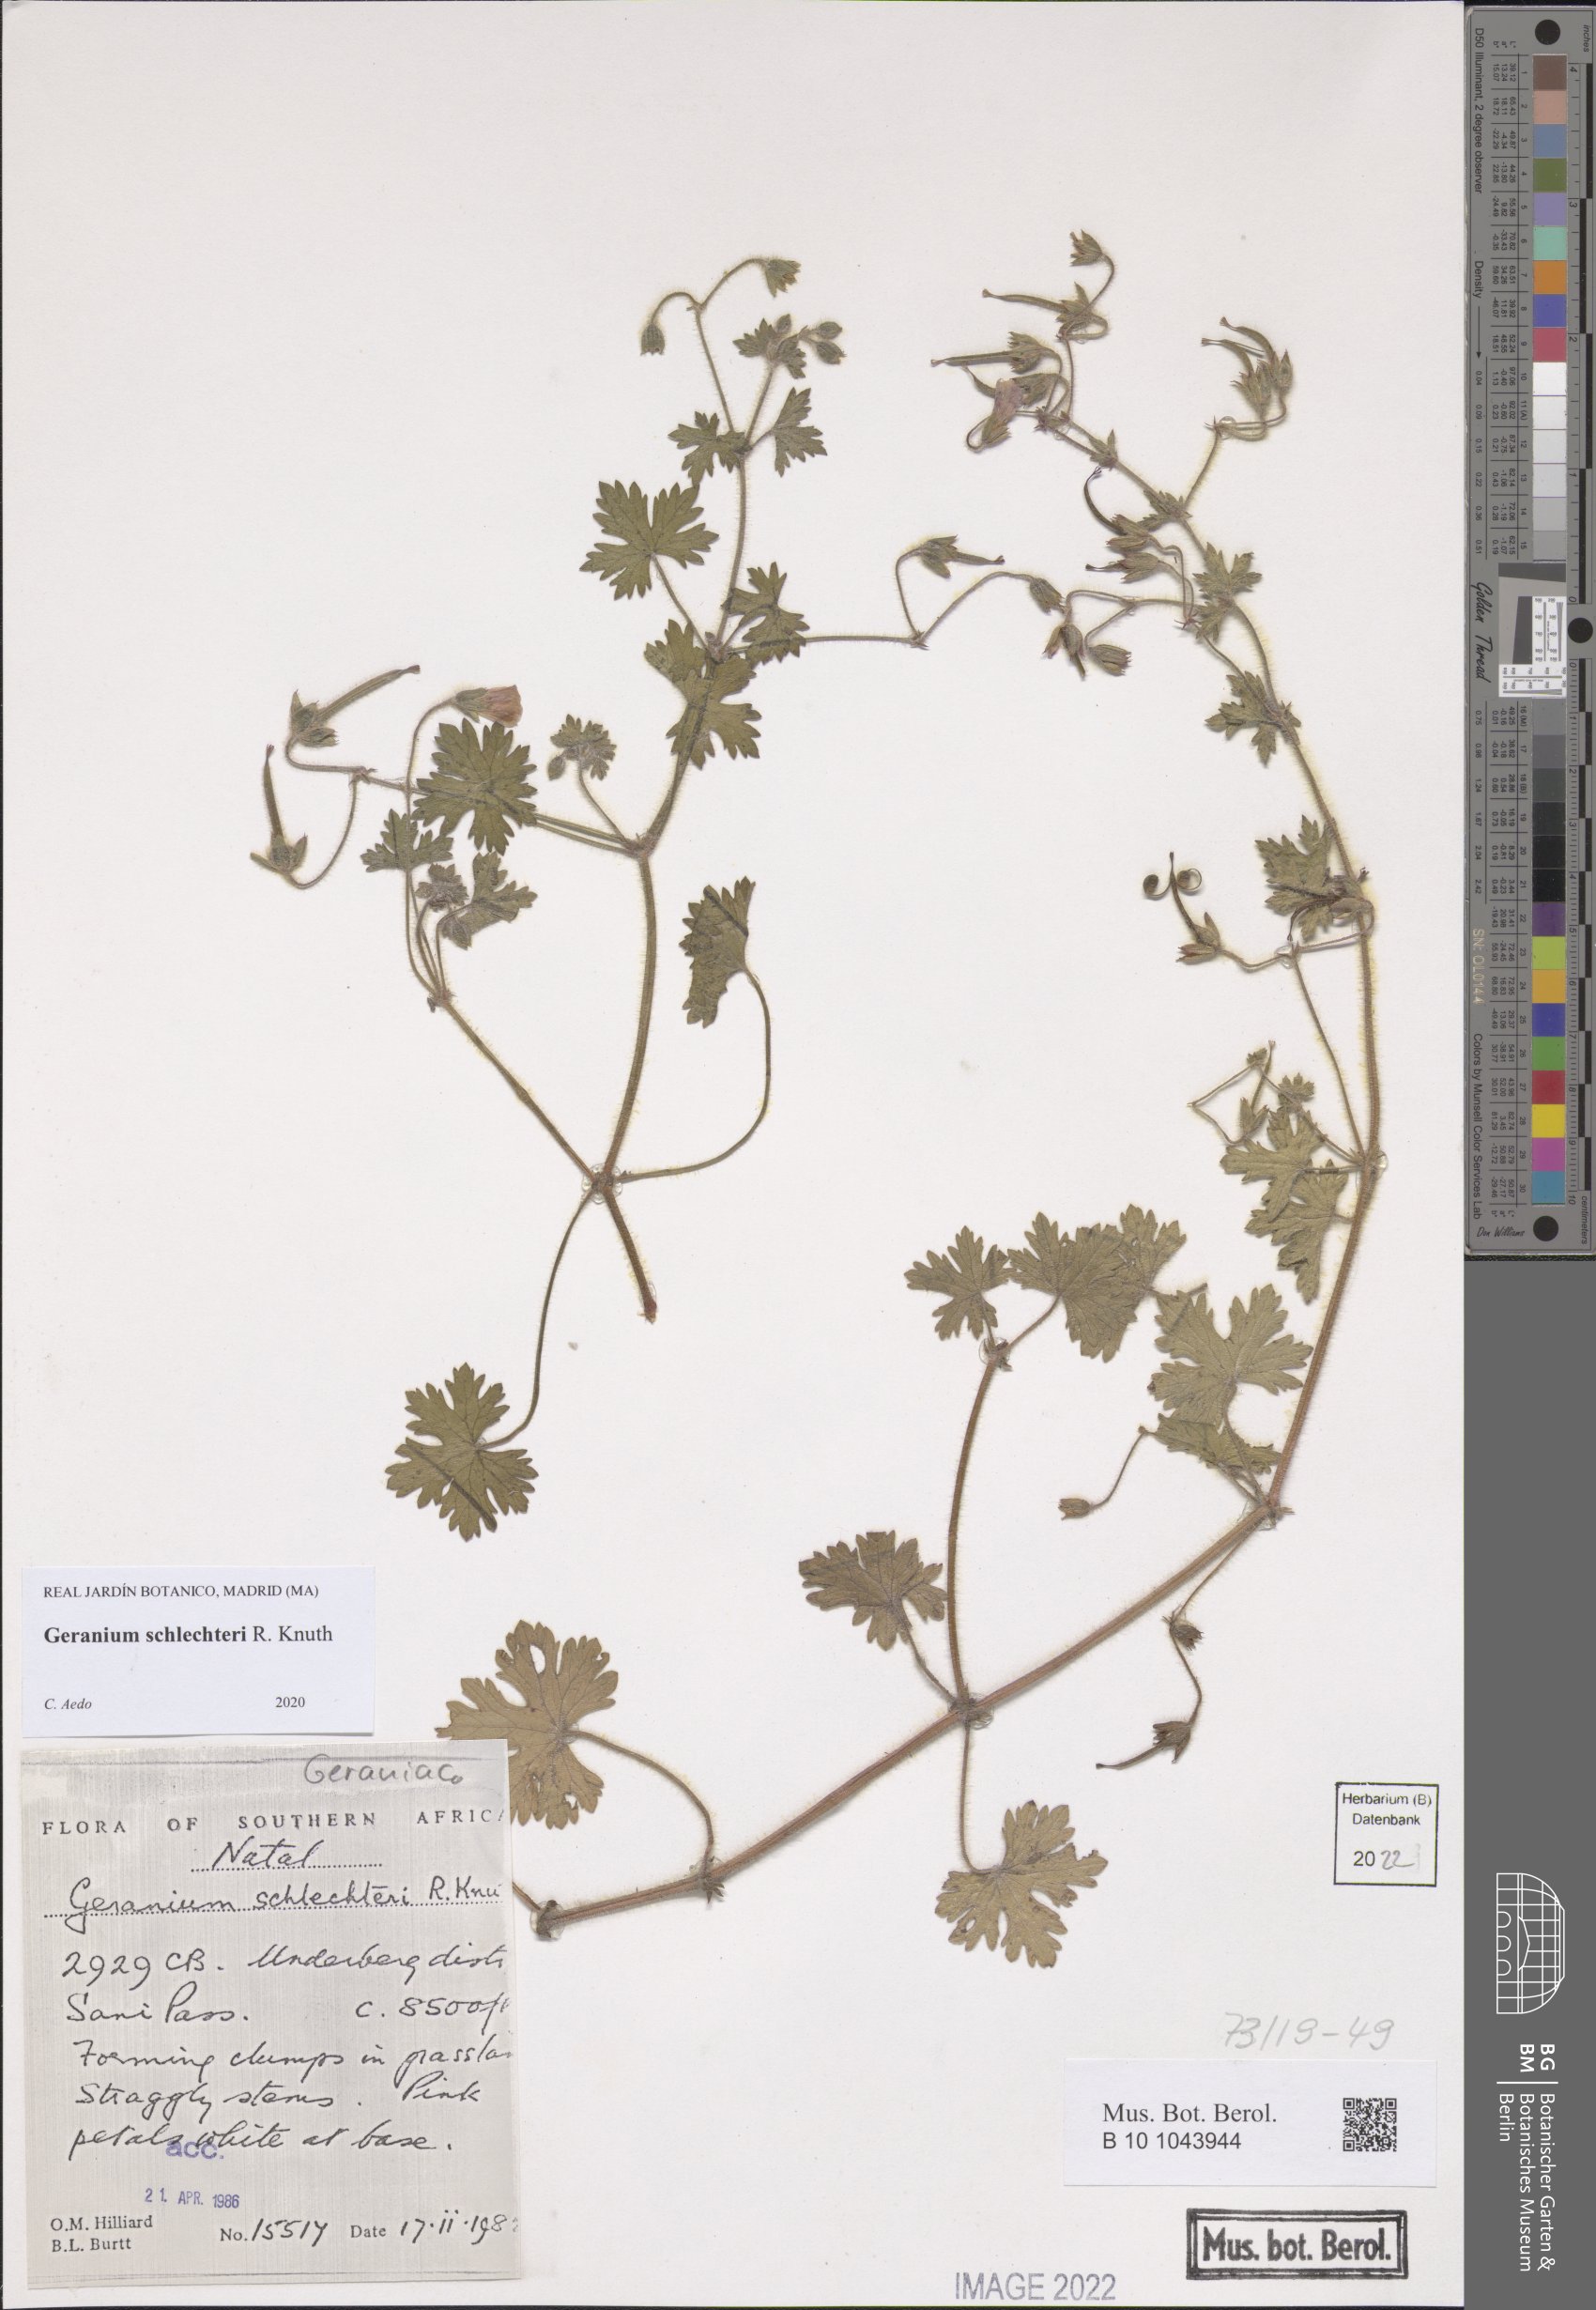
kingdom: Plantae
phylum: Tracheophyta
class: Magnoliopsida
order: Geraniales
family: Geraniaceae
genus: Geranium
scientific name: Geranium schlechteri
